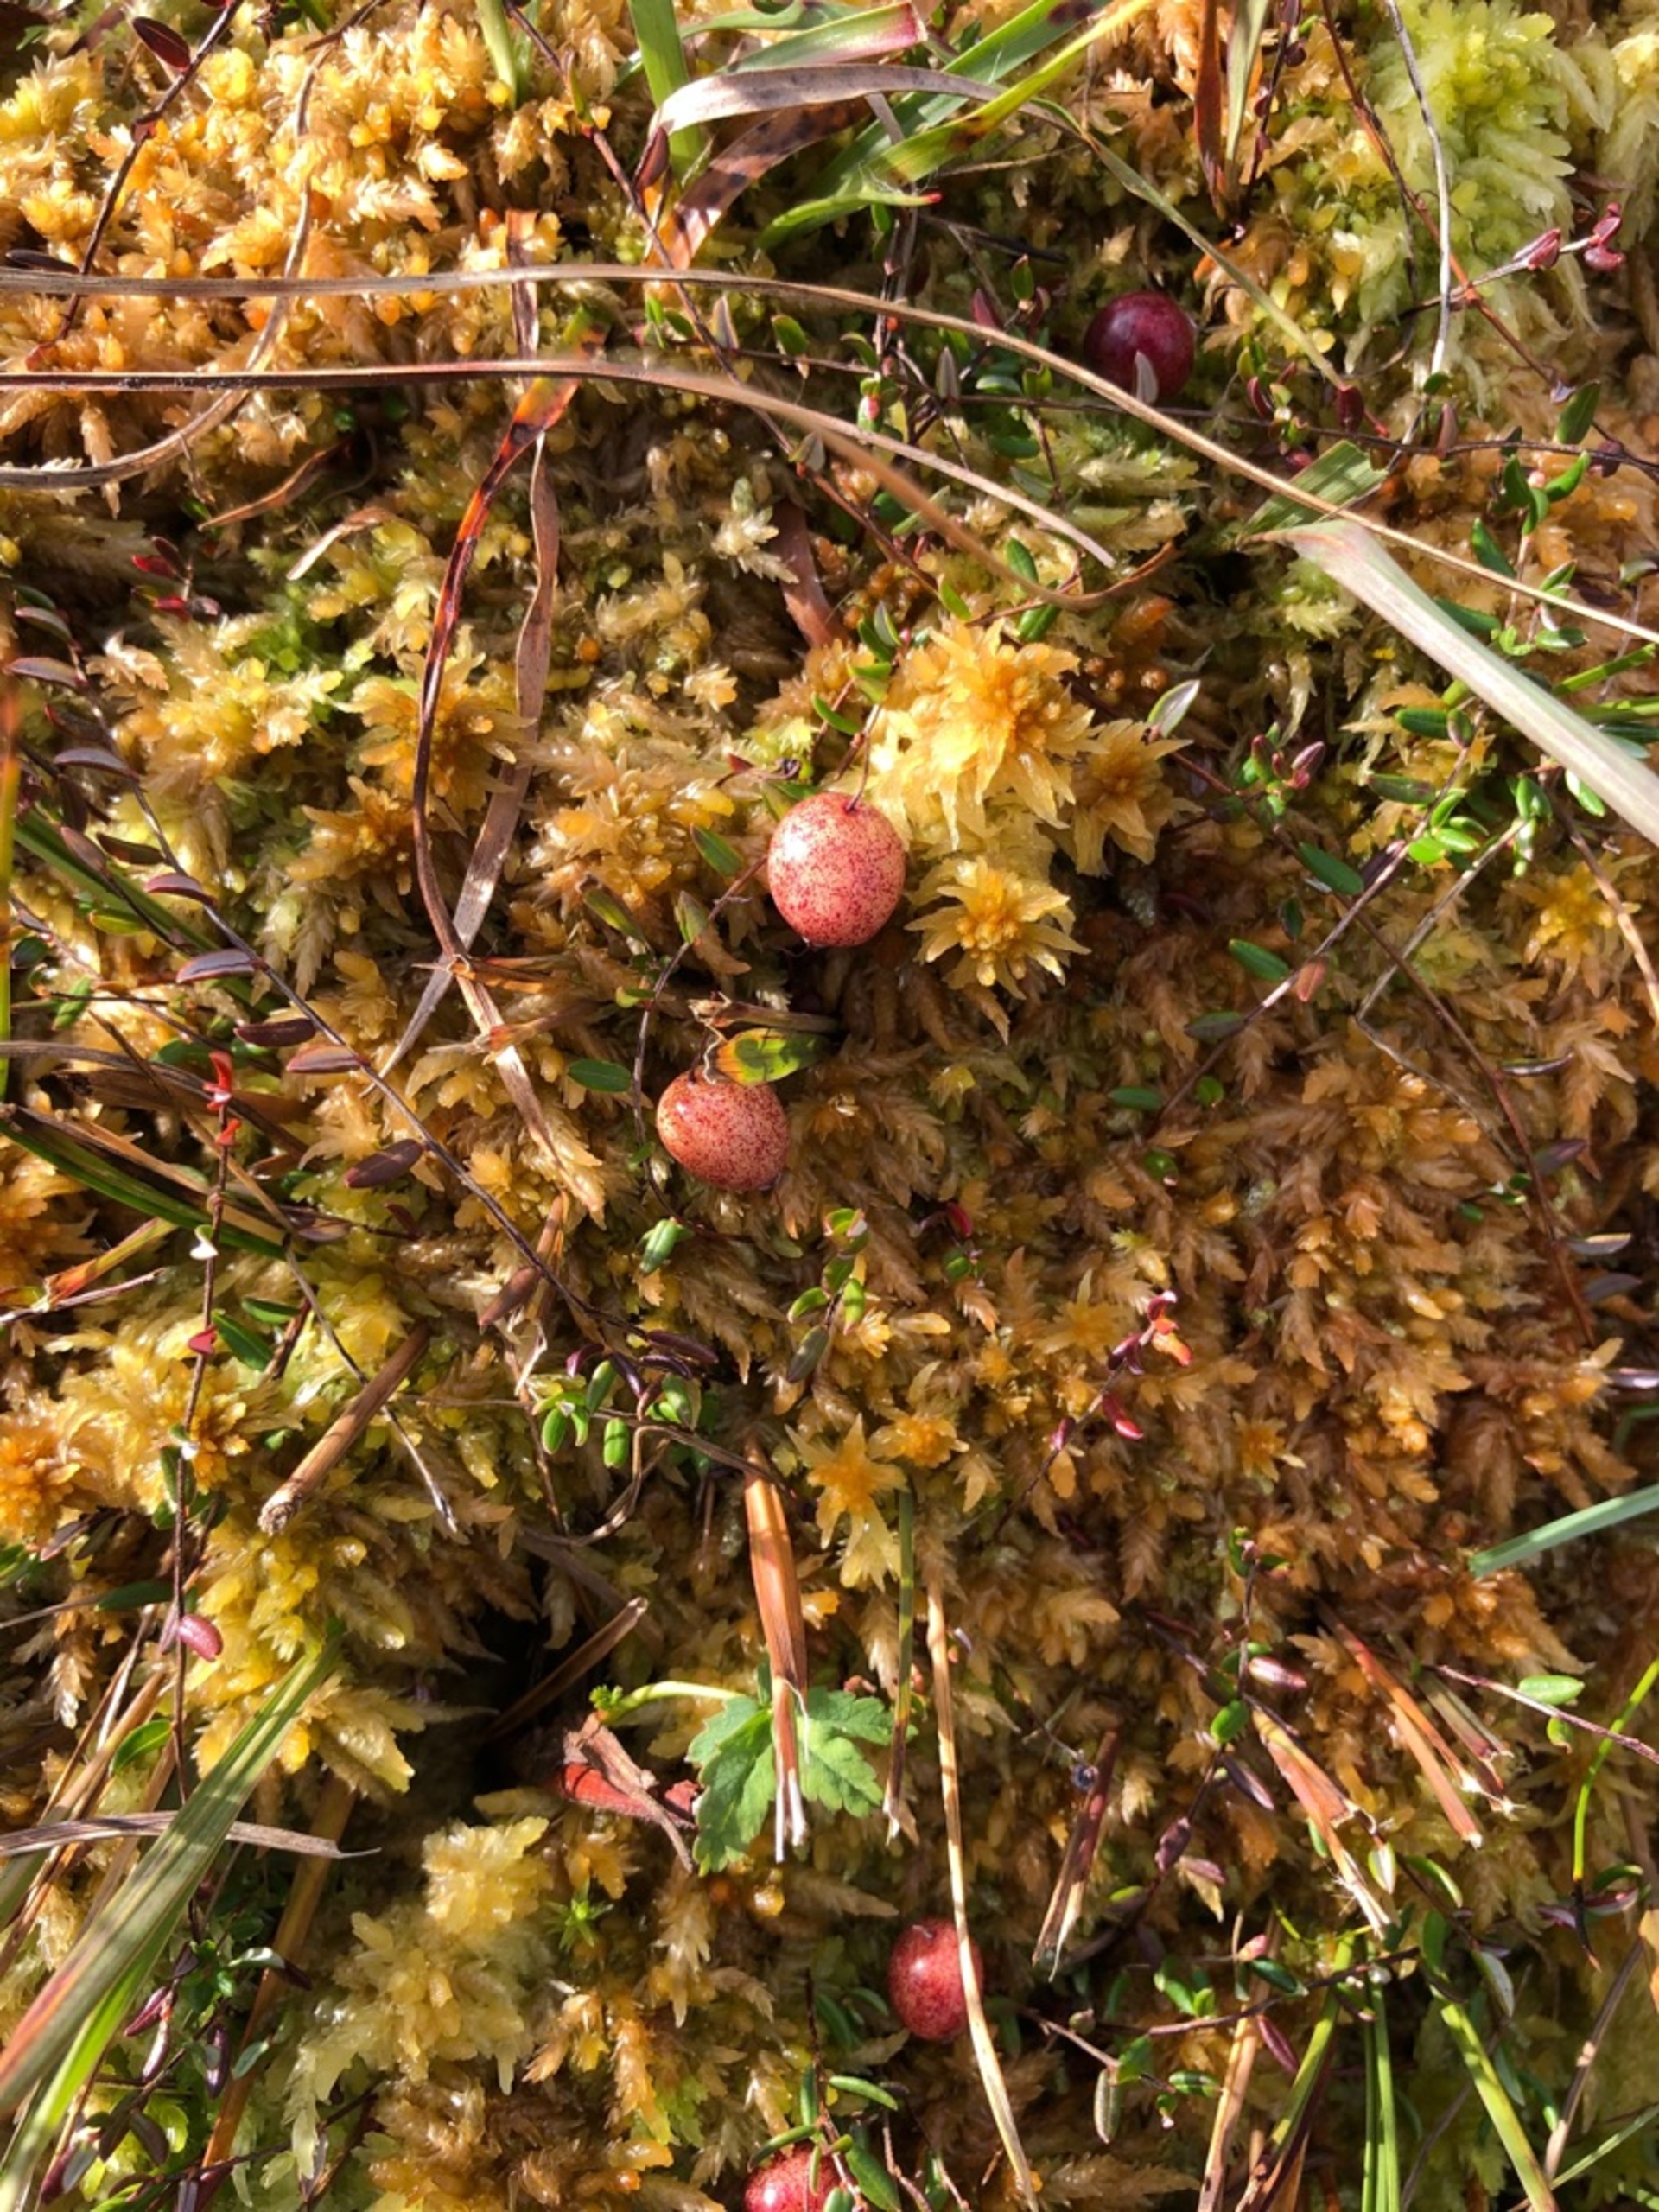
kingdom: Plantae
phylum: Tracheophyta
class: Magnoliopsida
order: Ericales
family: Ericaceae
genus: Vaccinium
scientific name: Vaccinium oxycoccos
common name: Tranebær
